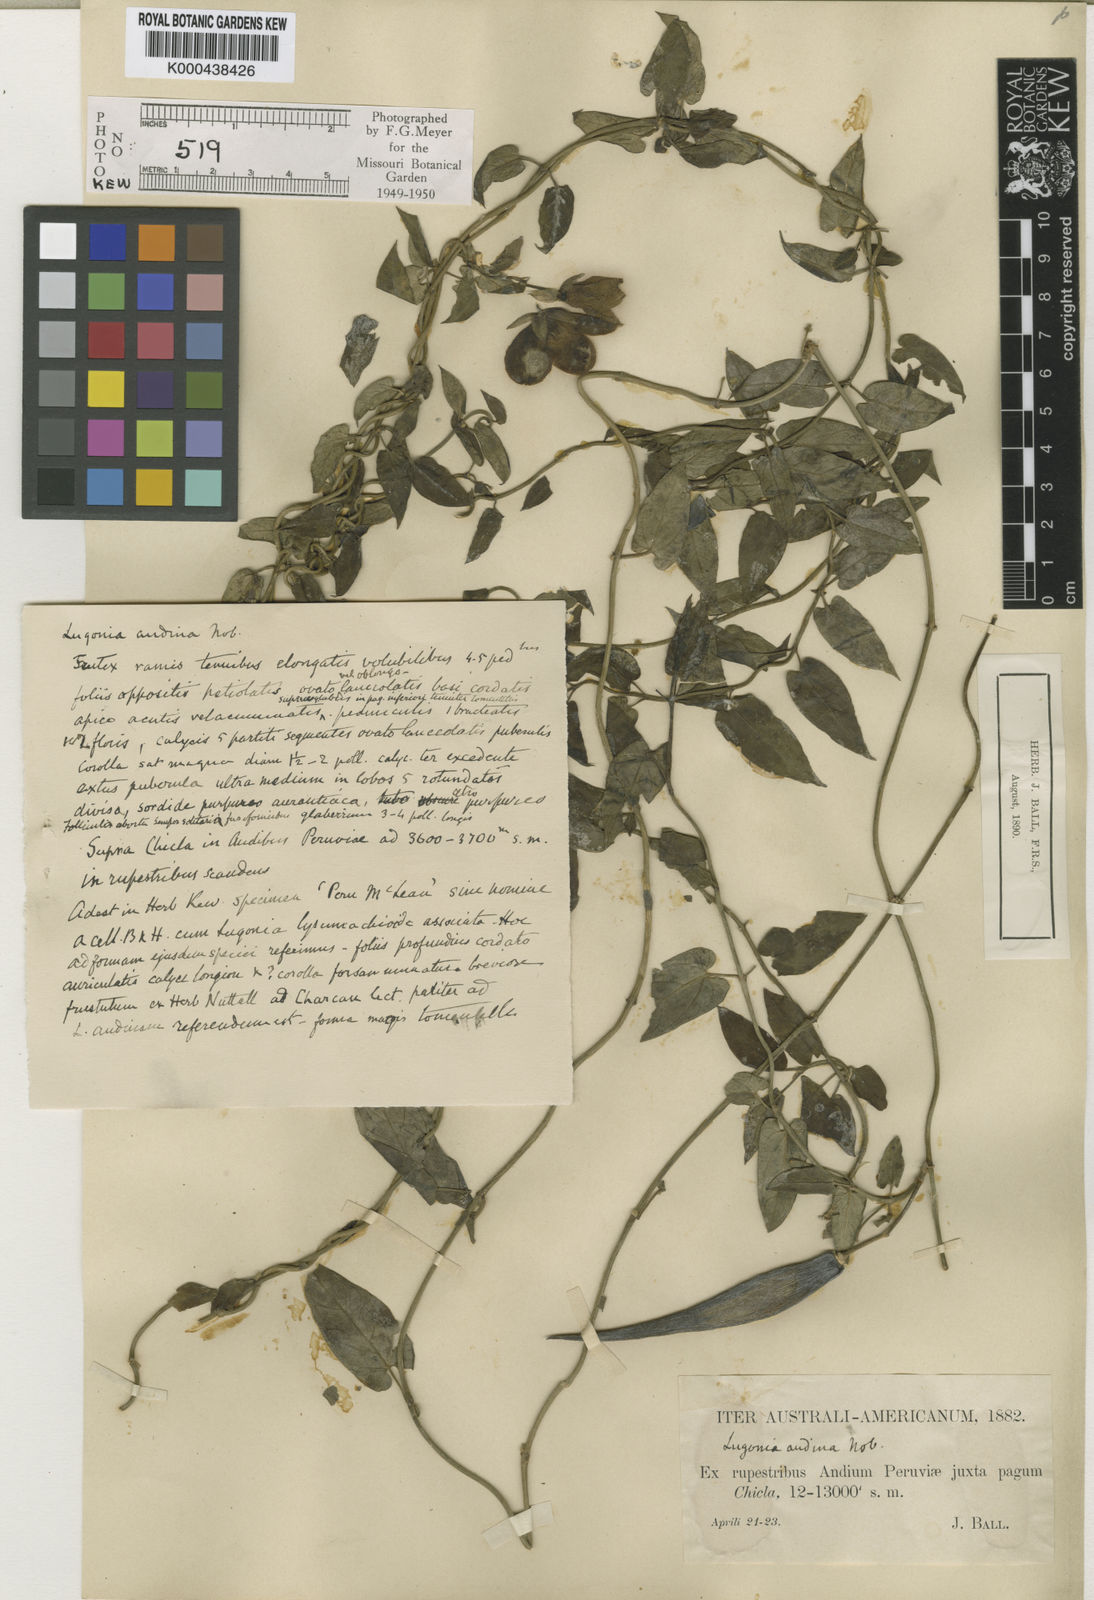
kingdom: Plantae
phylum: Tracheophyta
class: Magnoliopsida
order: Gentianales
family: Apocynaceae
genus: Pentacyphus
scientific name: Pentacyphus andinus
